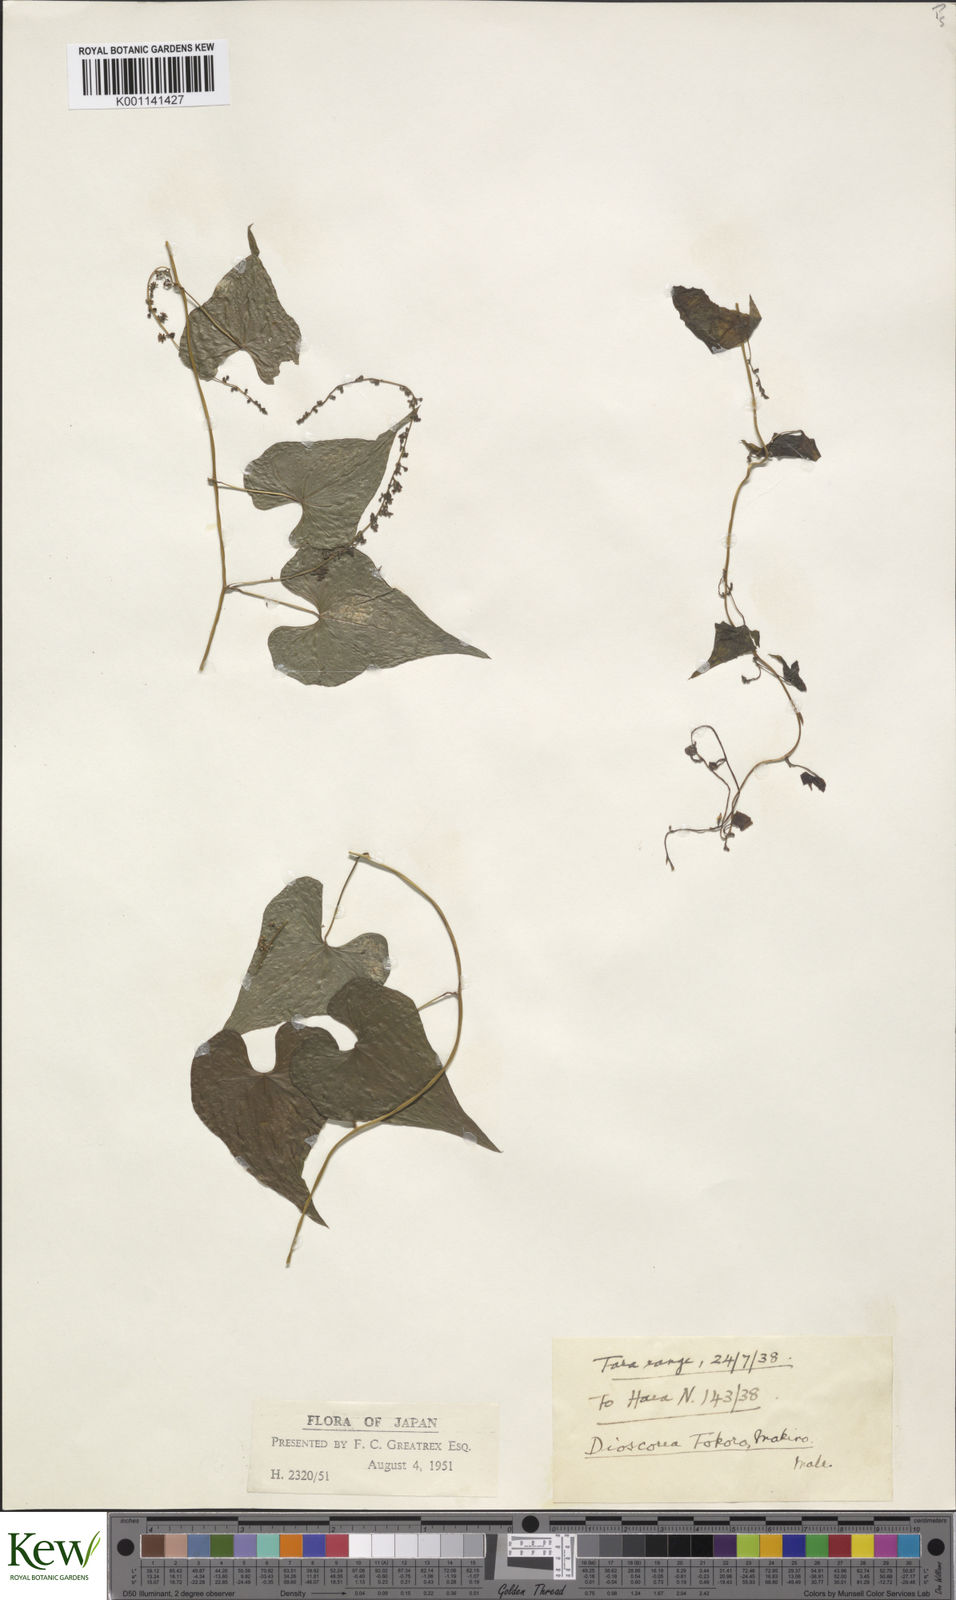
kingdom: Plantae
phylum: Tracheophyta
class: Liliopsida
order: Dioscoreales
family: Dioscoreaceae
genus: Dioscorea
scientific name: Dioscorea tokoro
